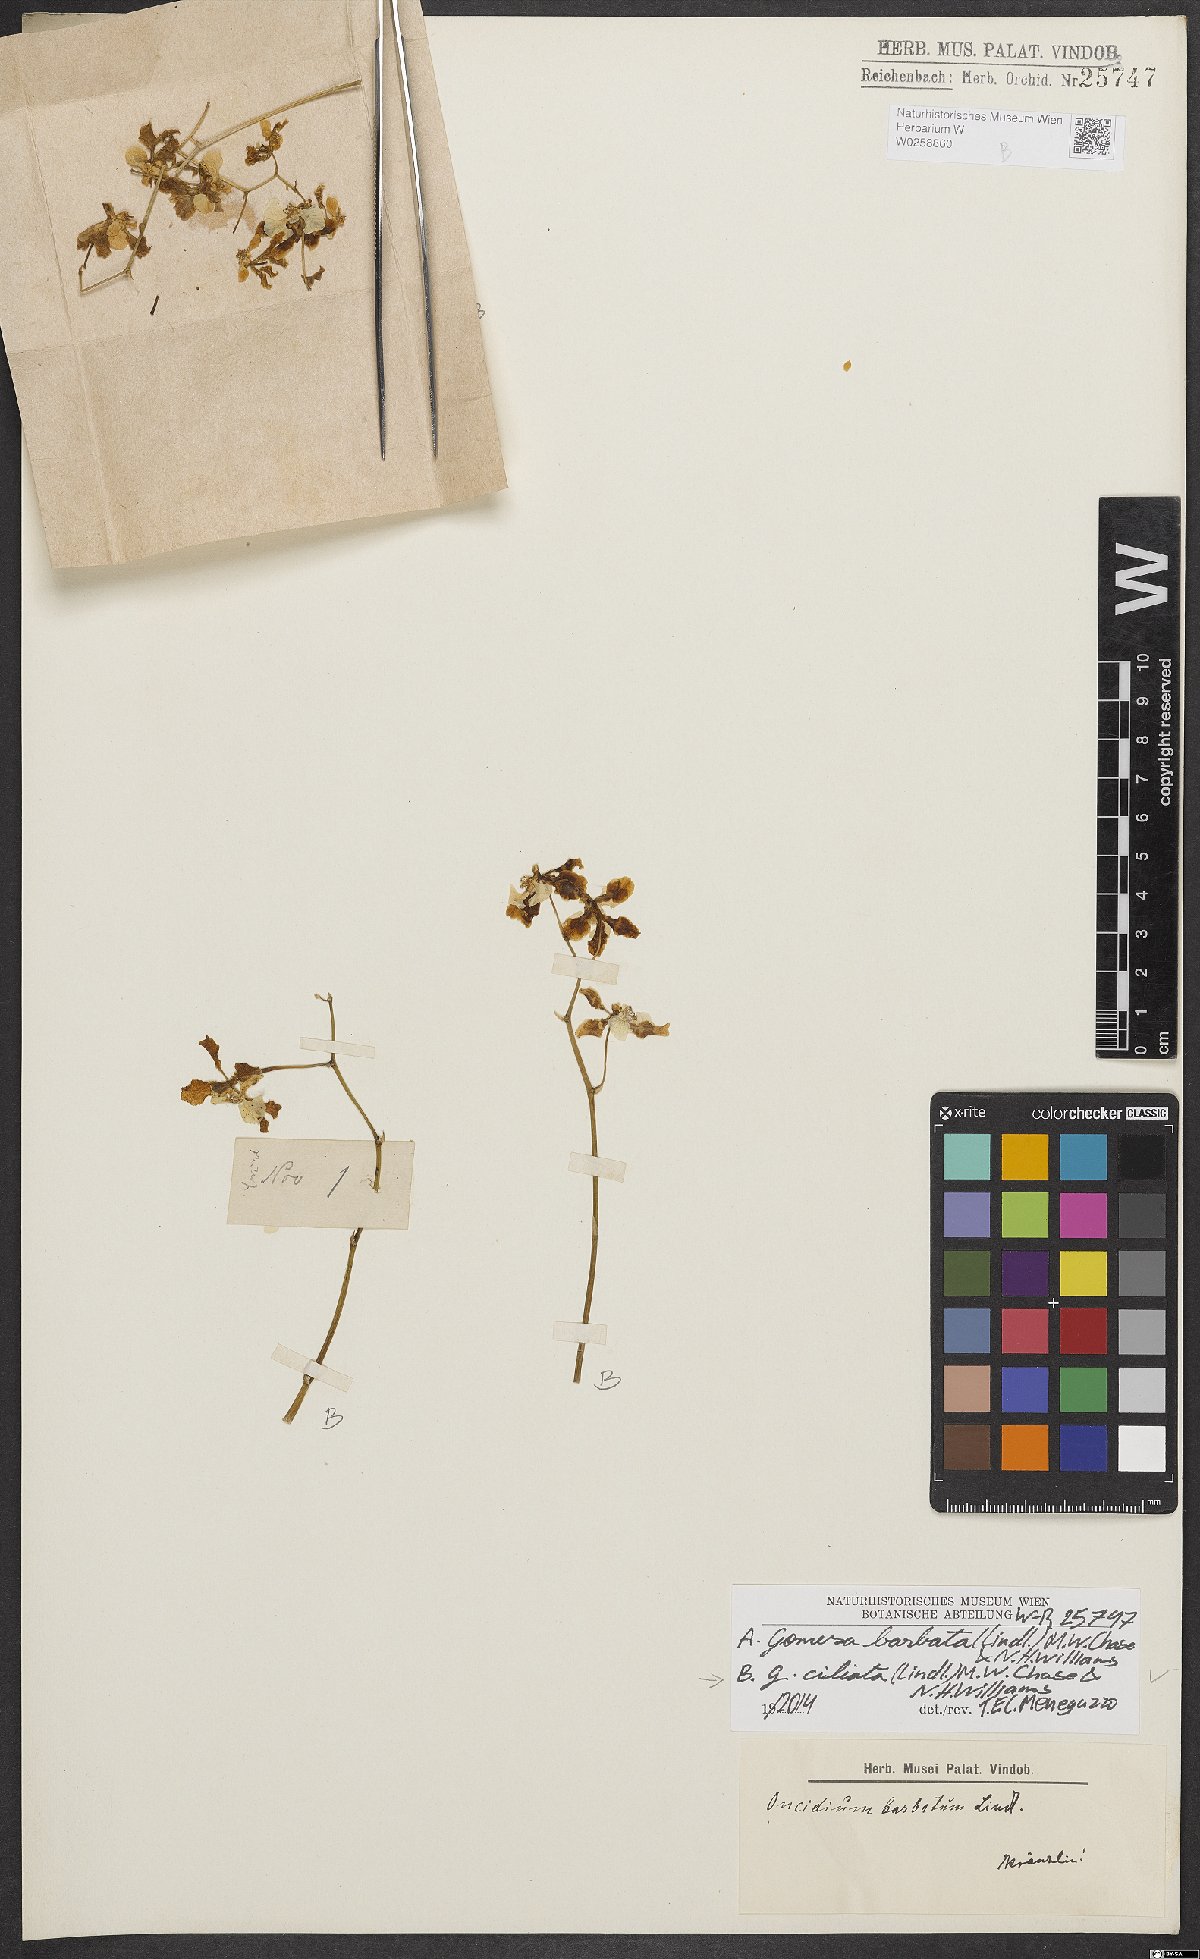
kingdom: Plantae
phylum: Tracheophyta
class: Liliopsida
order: Asparagales
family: Orchidaceae
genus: Gomesa
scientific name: Gomesa ciliata
